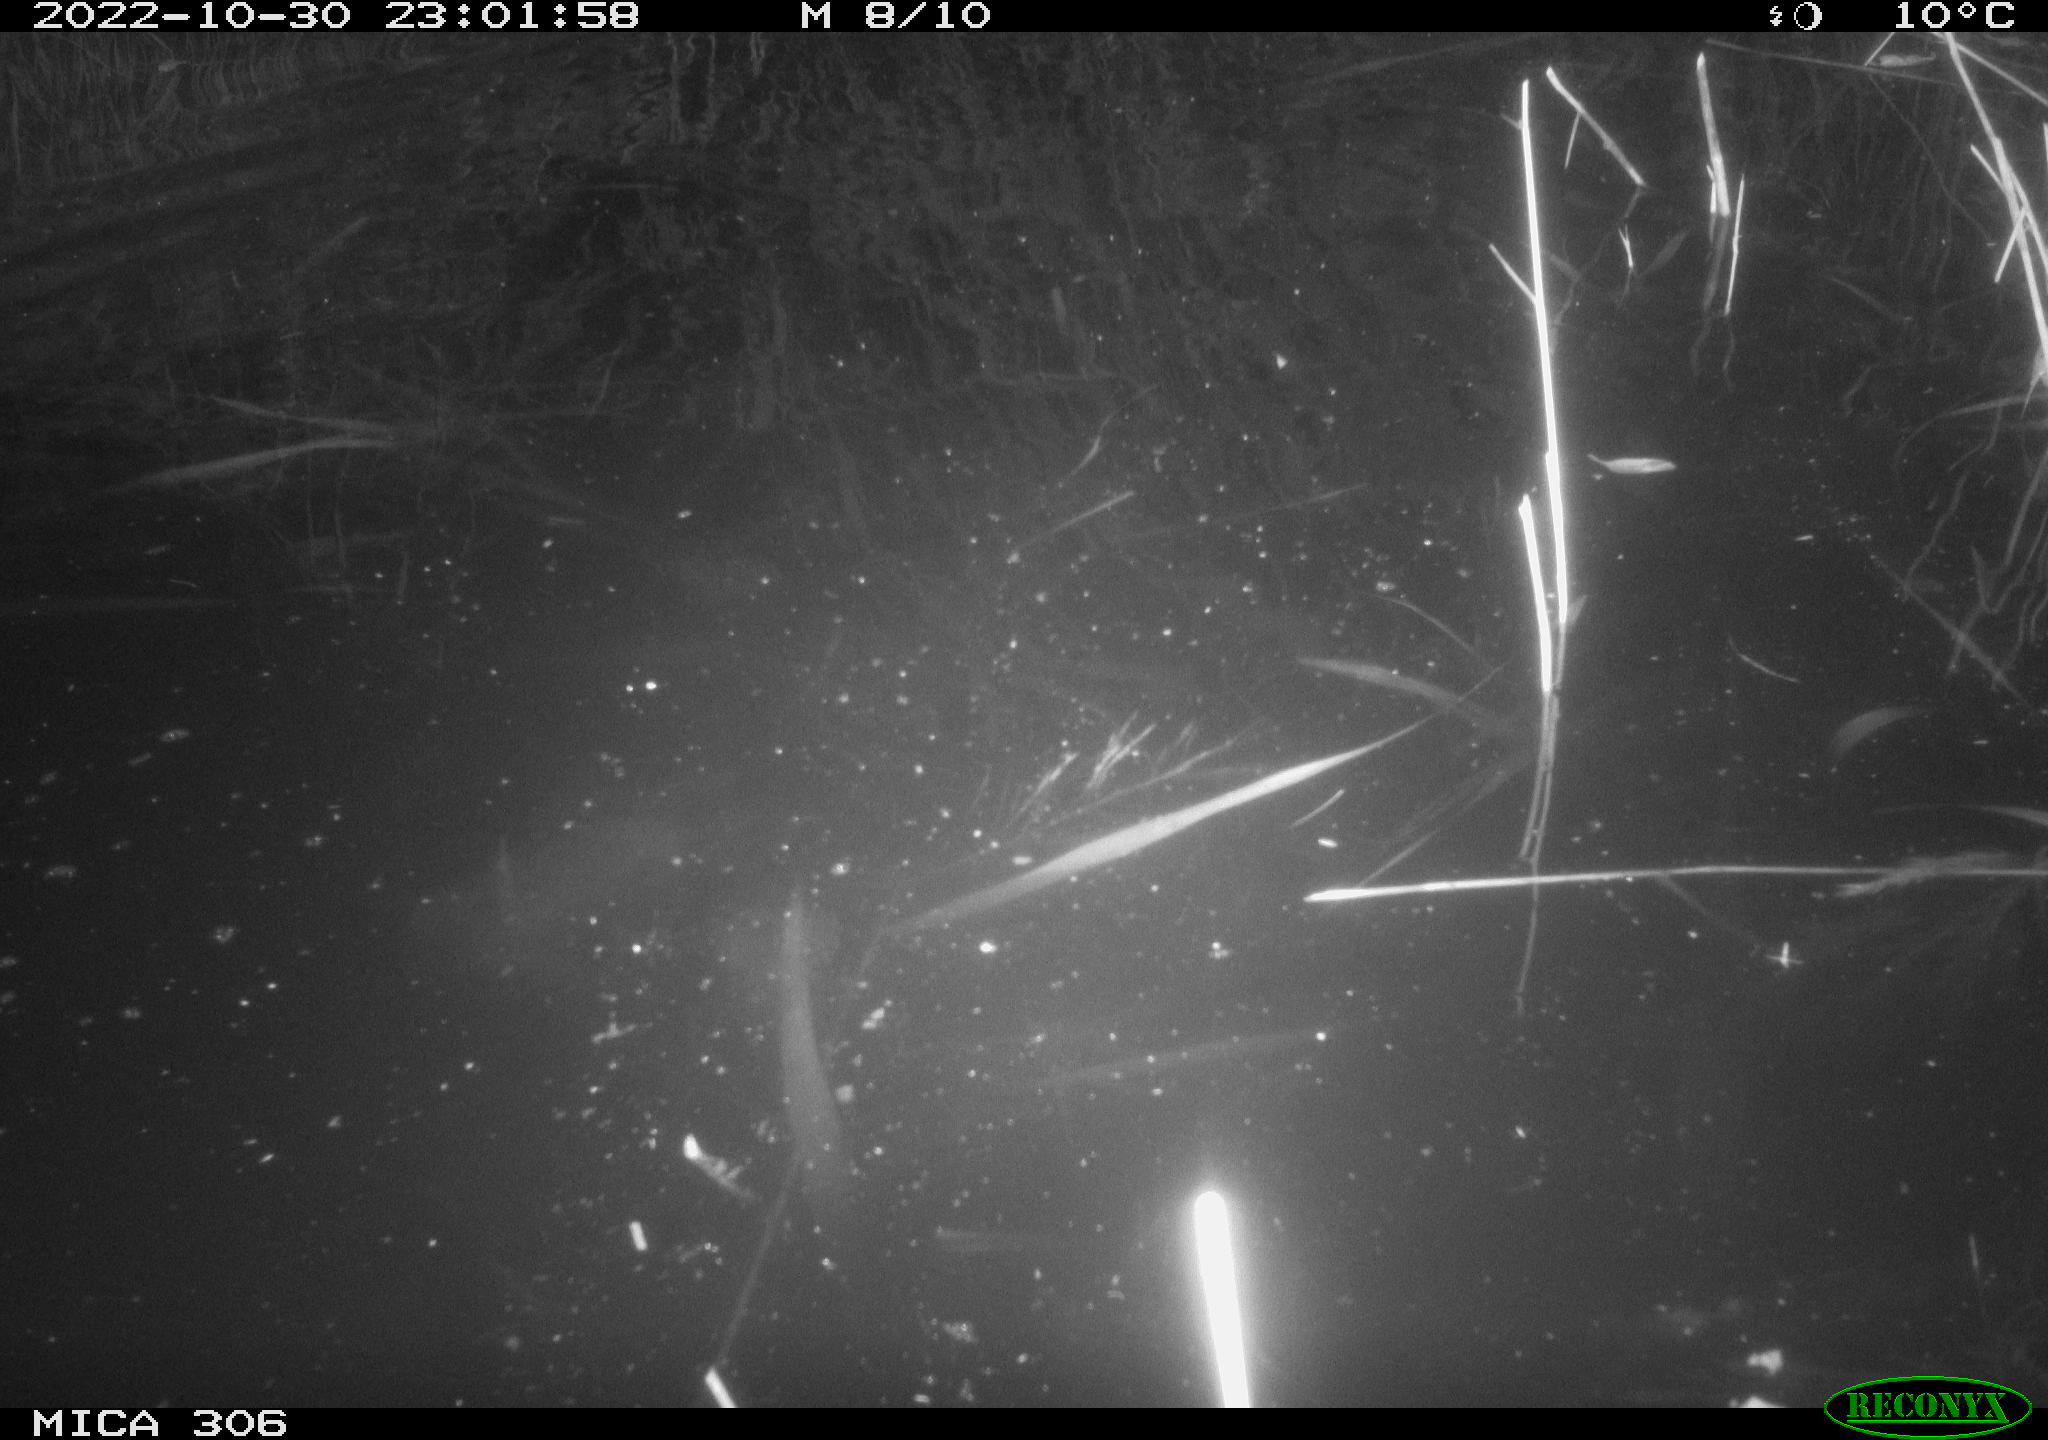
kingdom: Animalia
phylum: Chordata
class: Mammalia
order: Rodentia
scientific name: Rodentia
